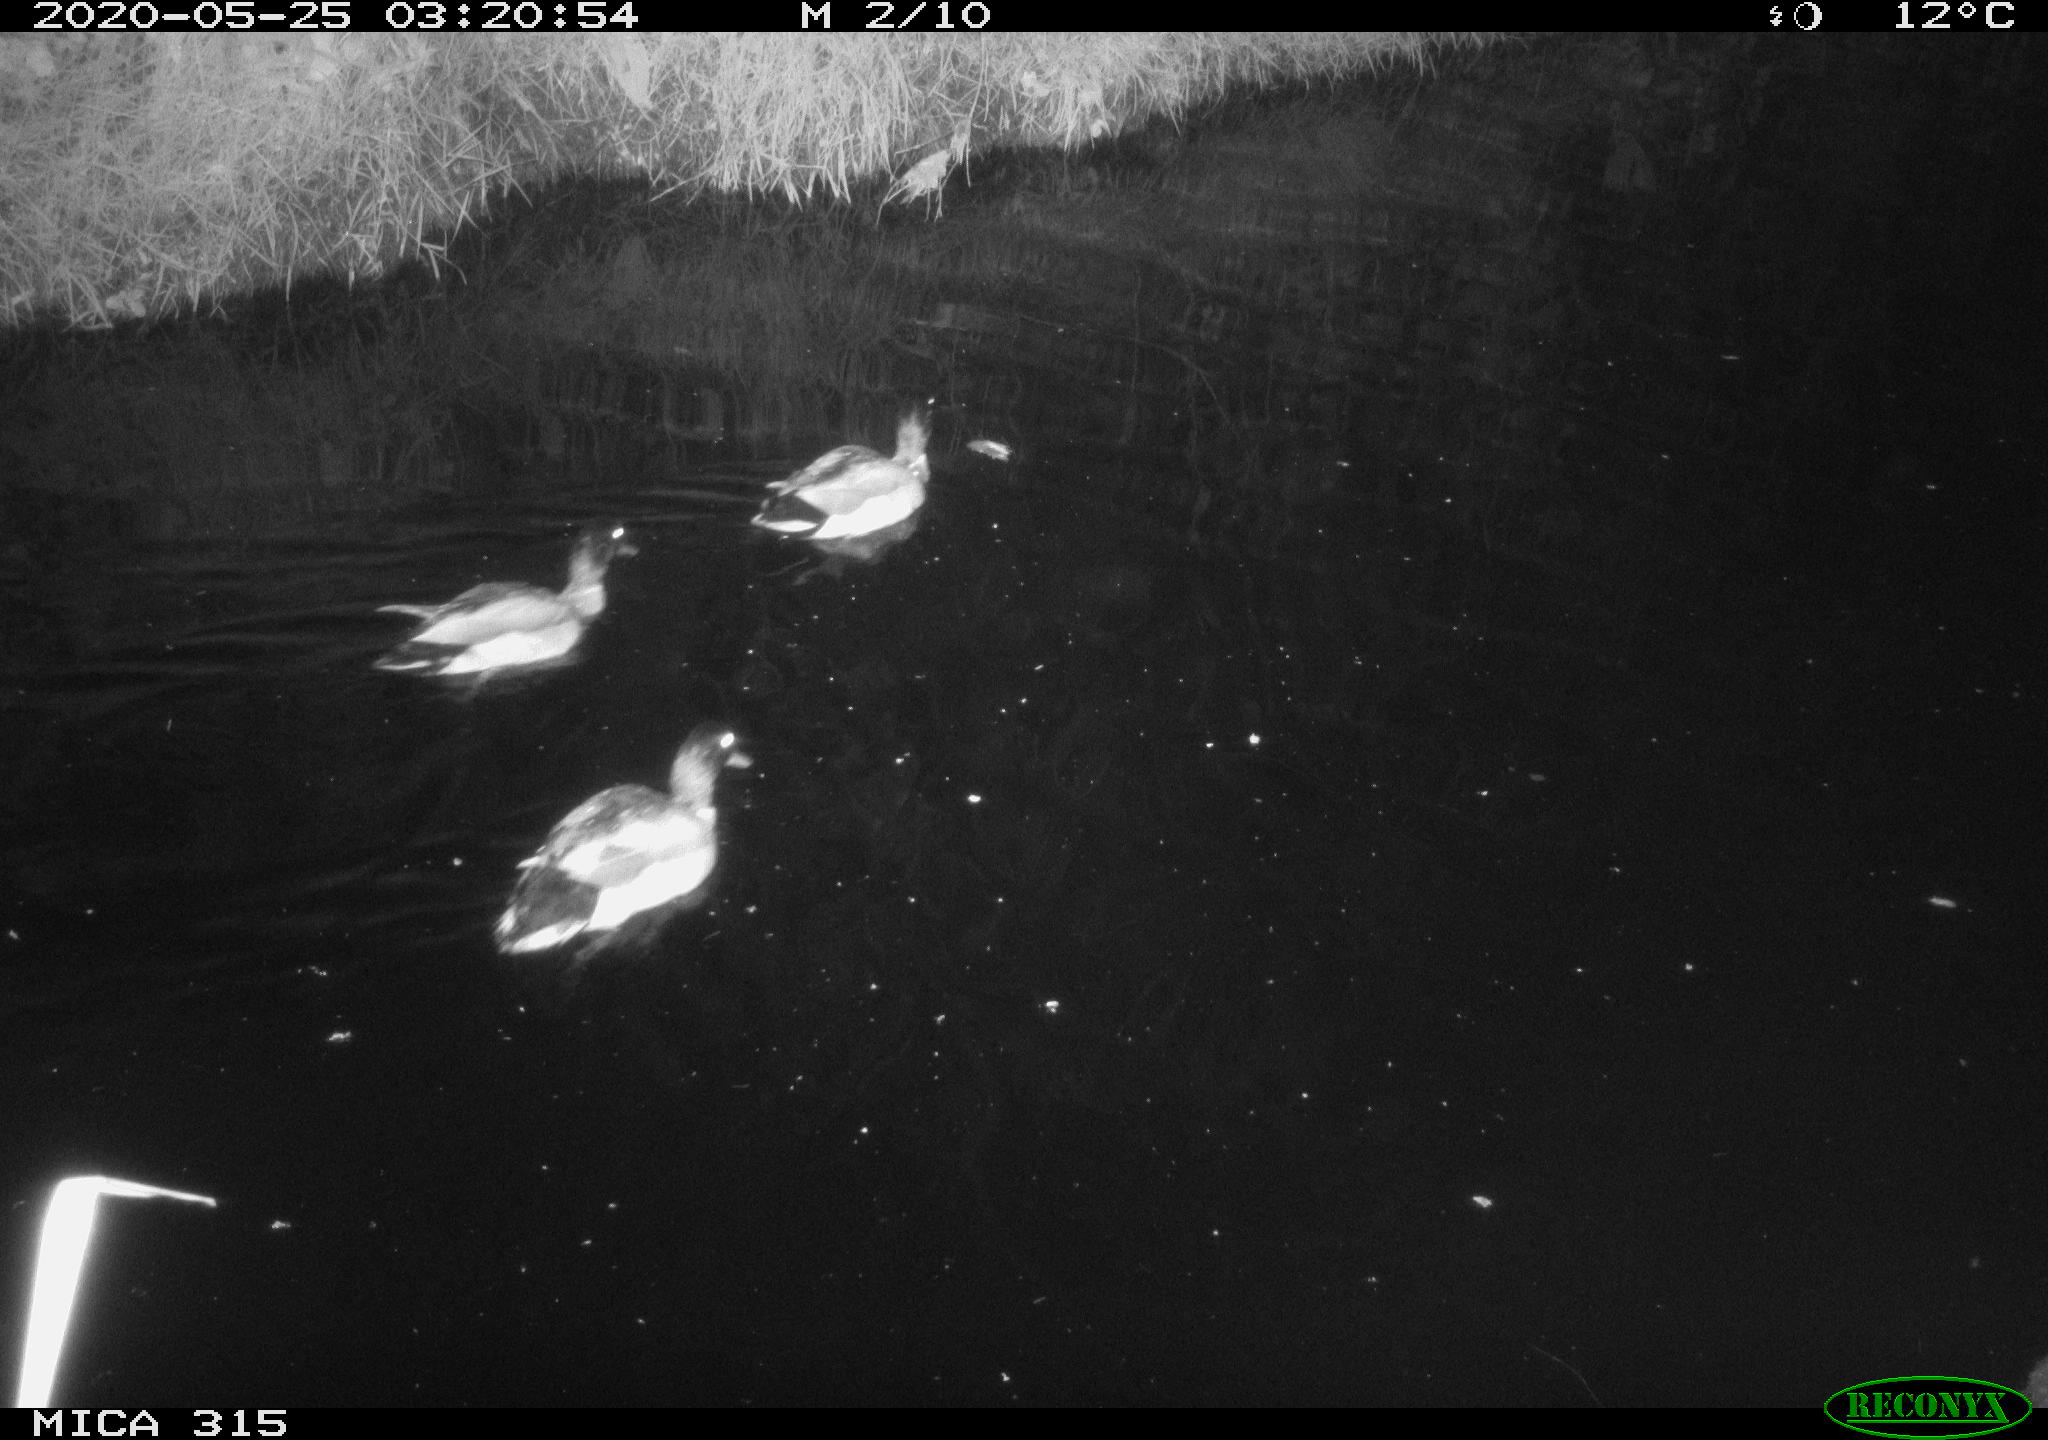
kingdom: Animalia
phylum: Chordata
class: Aves
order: Anseriformes
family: Anatidae
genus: Anas
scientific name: Anas platyrhynchos
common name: Mallard
